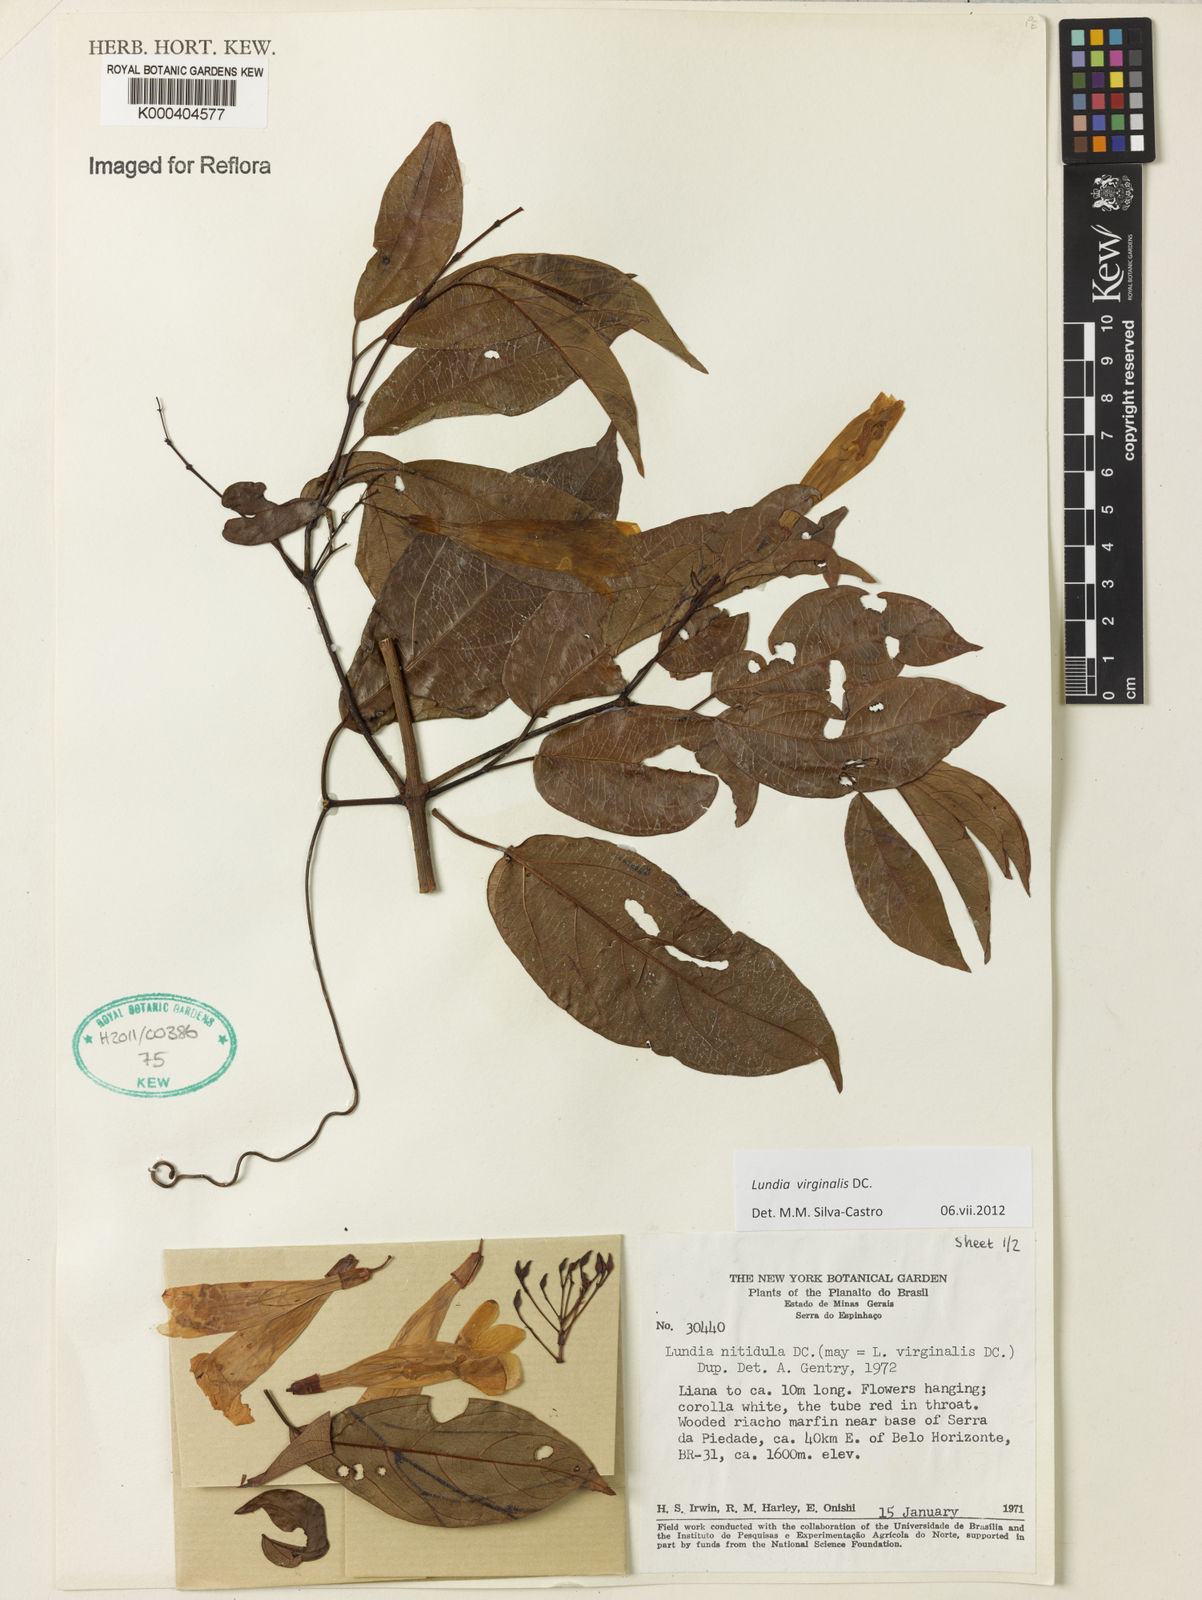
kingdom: Plantae
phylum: Tracheophyta
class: Magnoliopsida
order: Lamiales
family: Bignoniaceae
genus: Lundia
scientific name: Lundia virginalis
